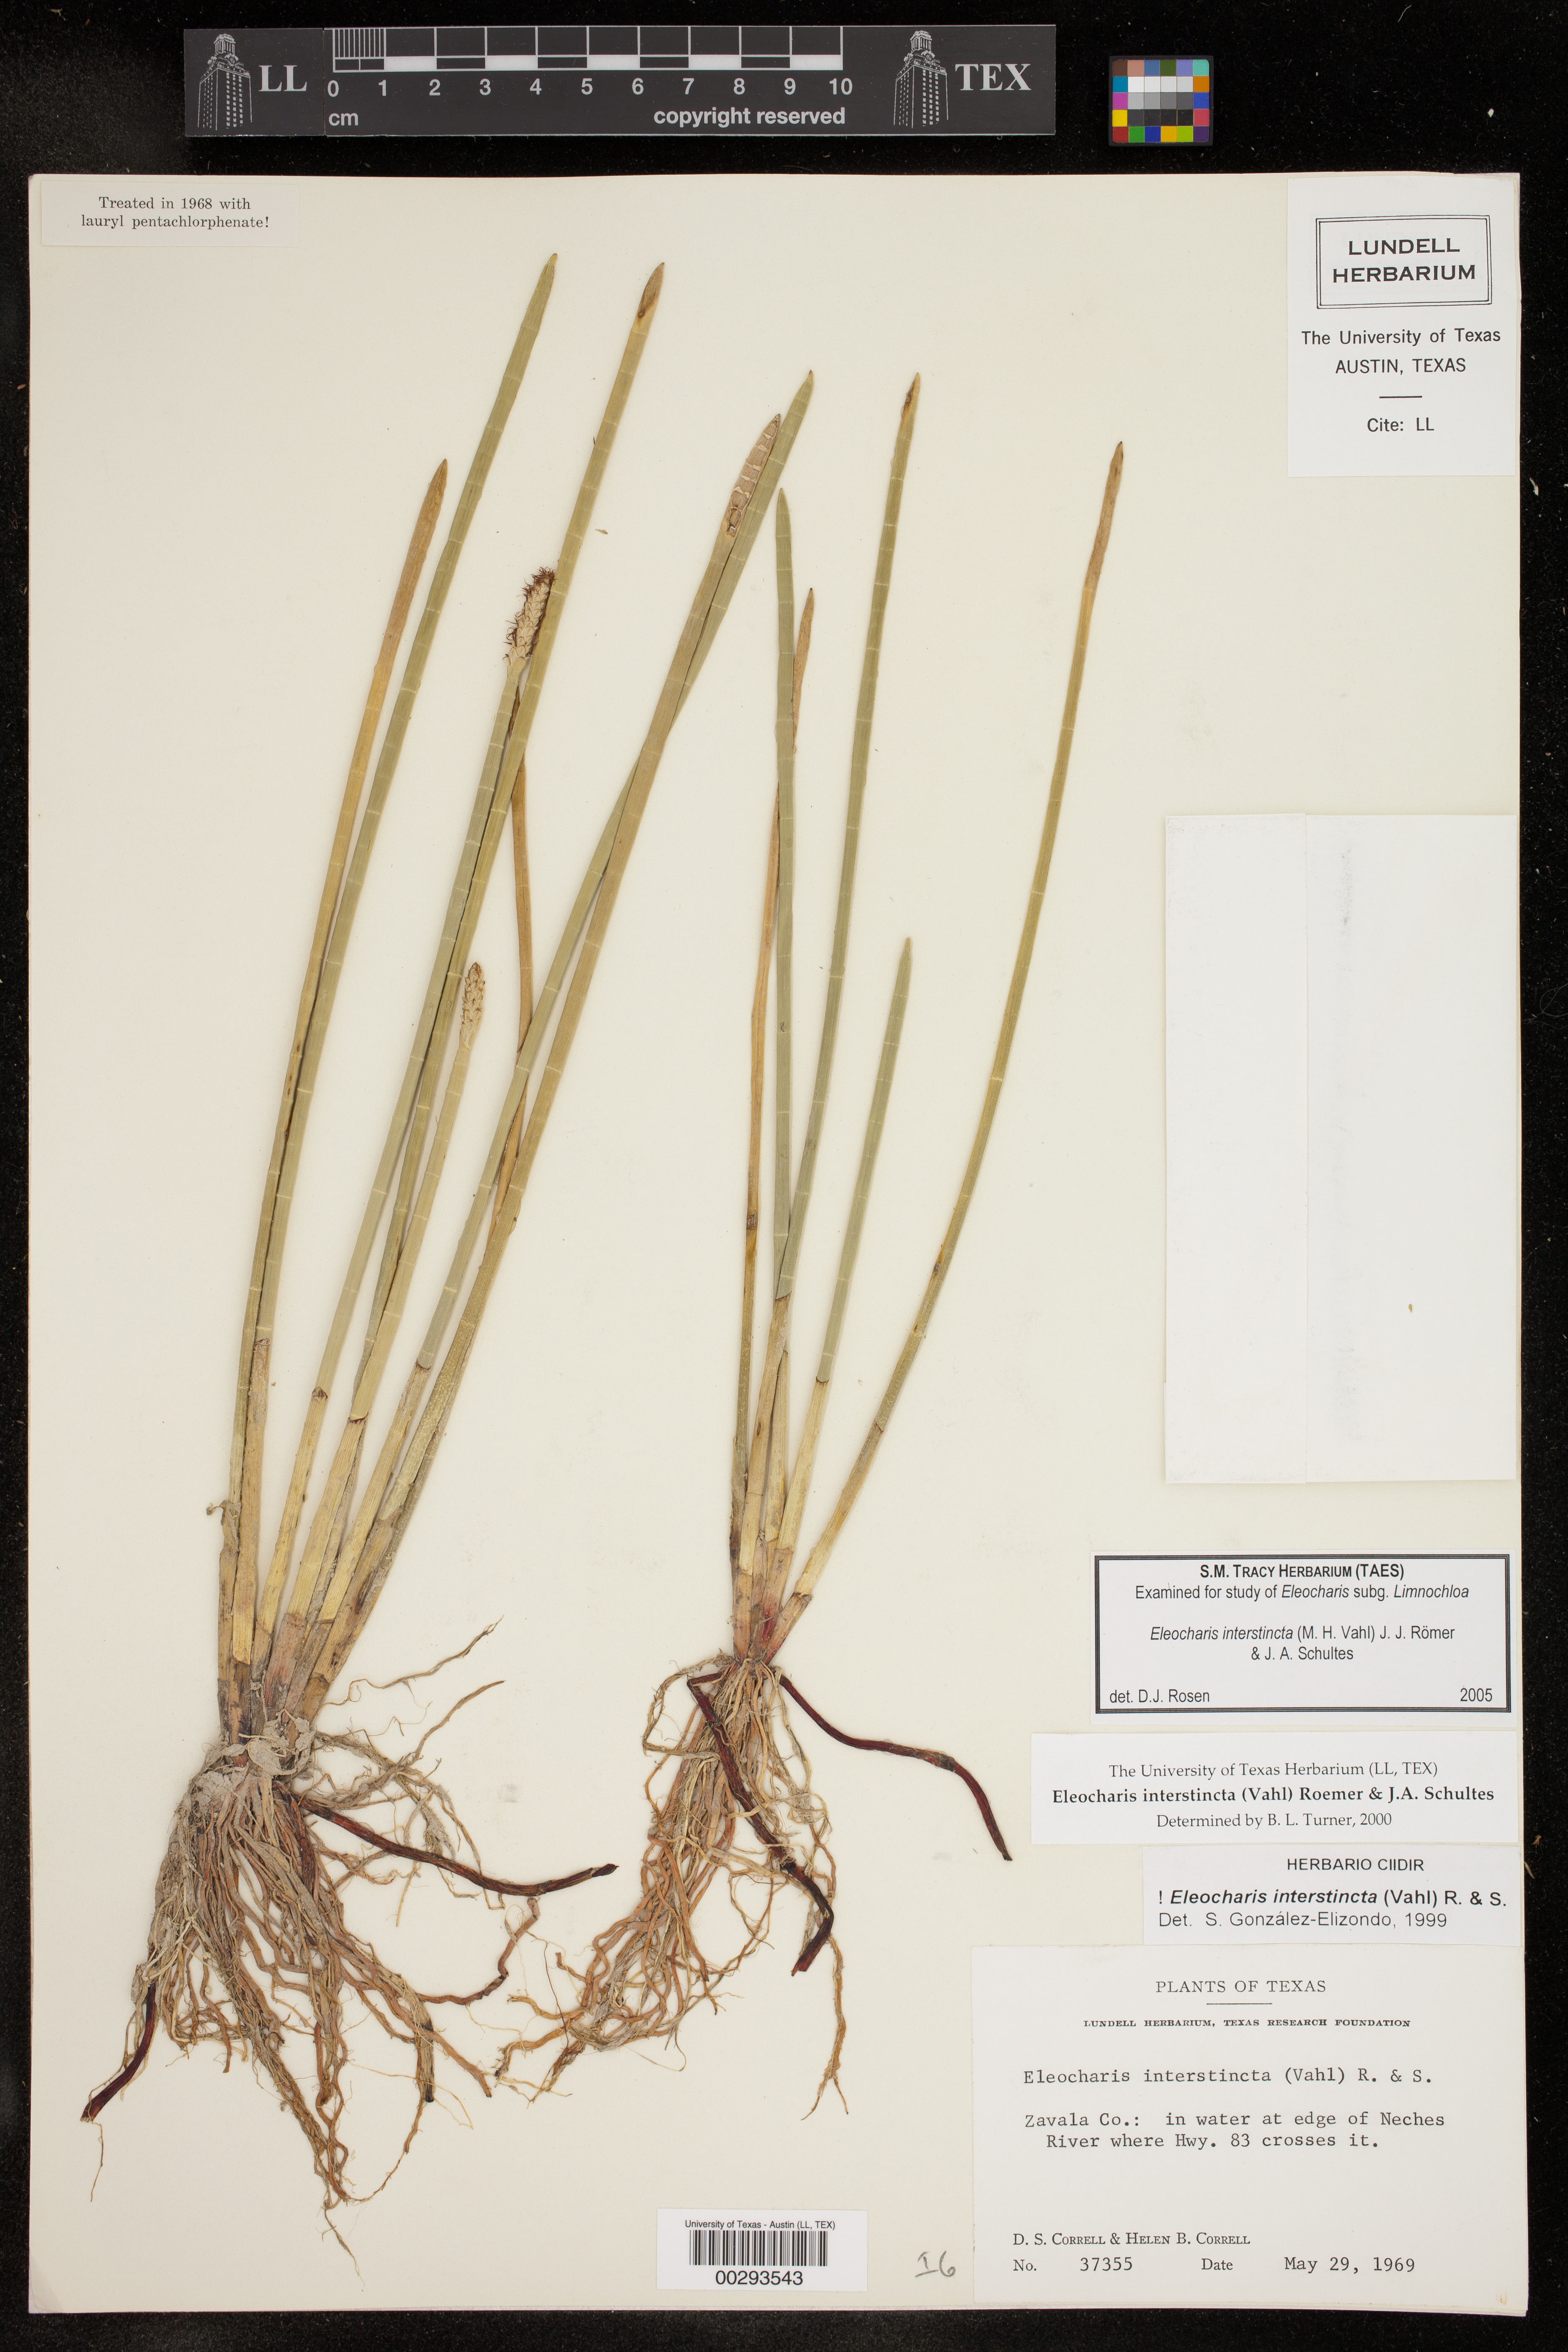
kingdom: Plantae
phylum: Tracheophyta
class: Liliopsida
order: Poales
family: Cyperaceae
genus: Eleocharis
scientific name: Eleocharis interstincta
